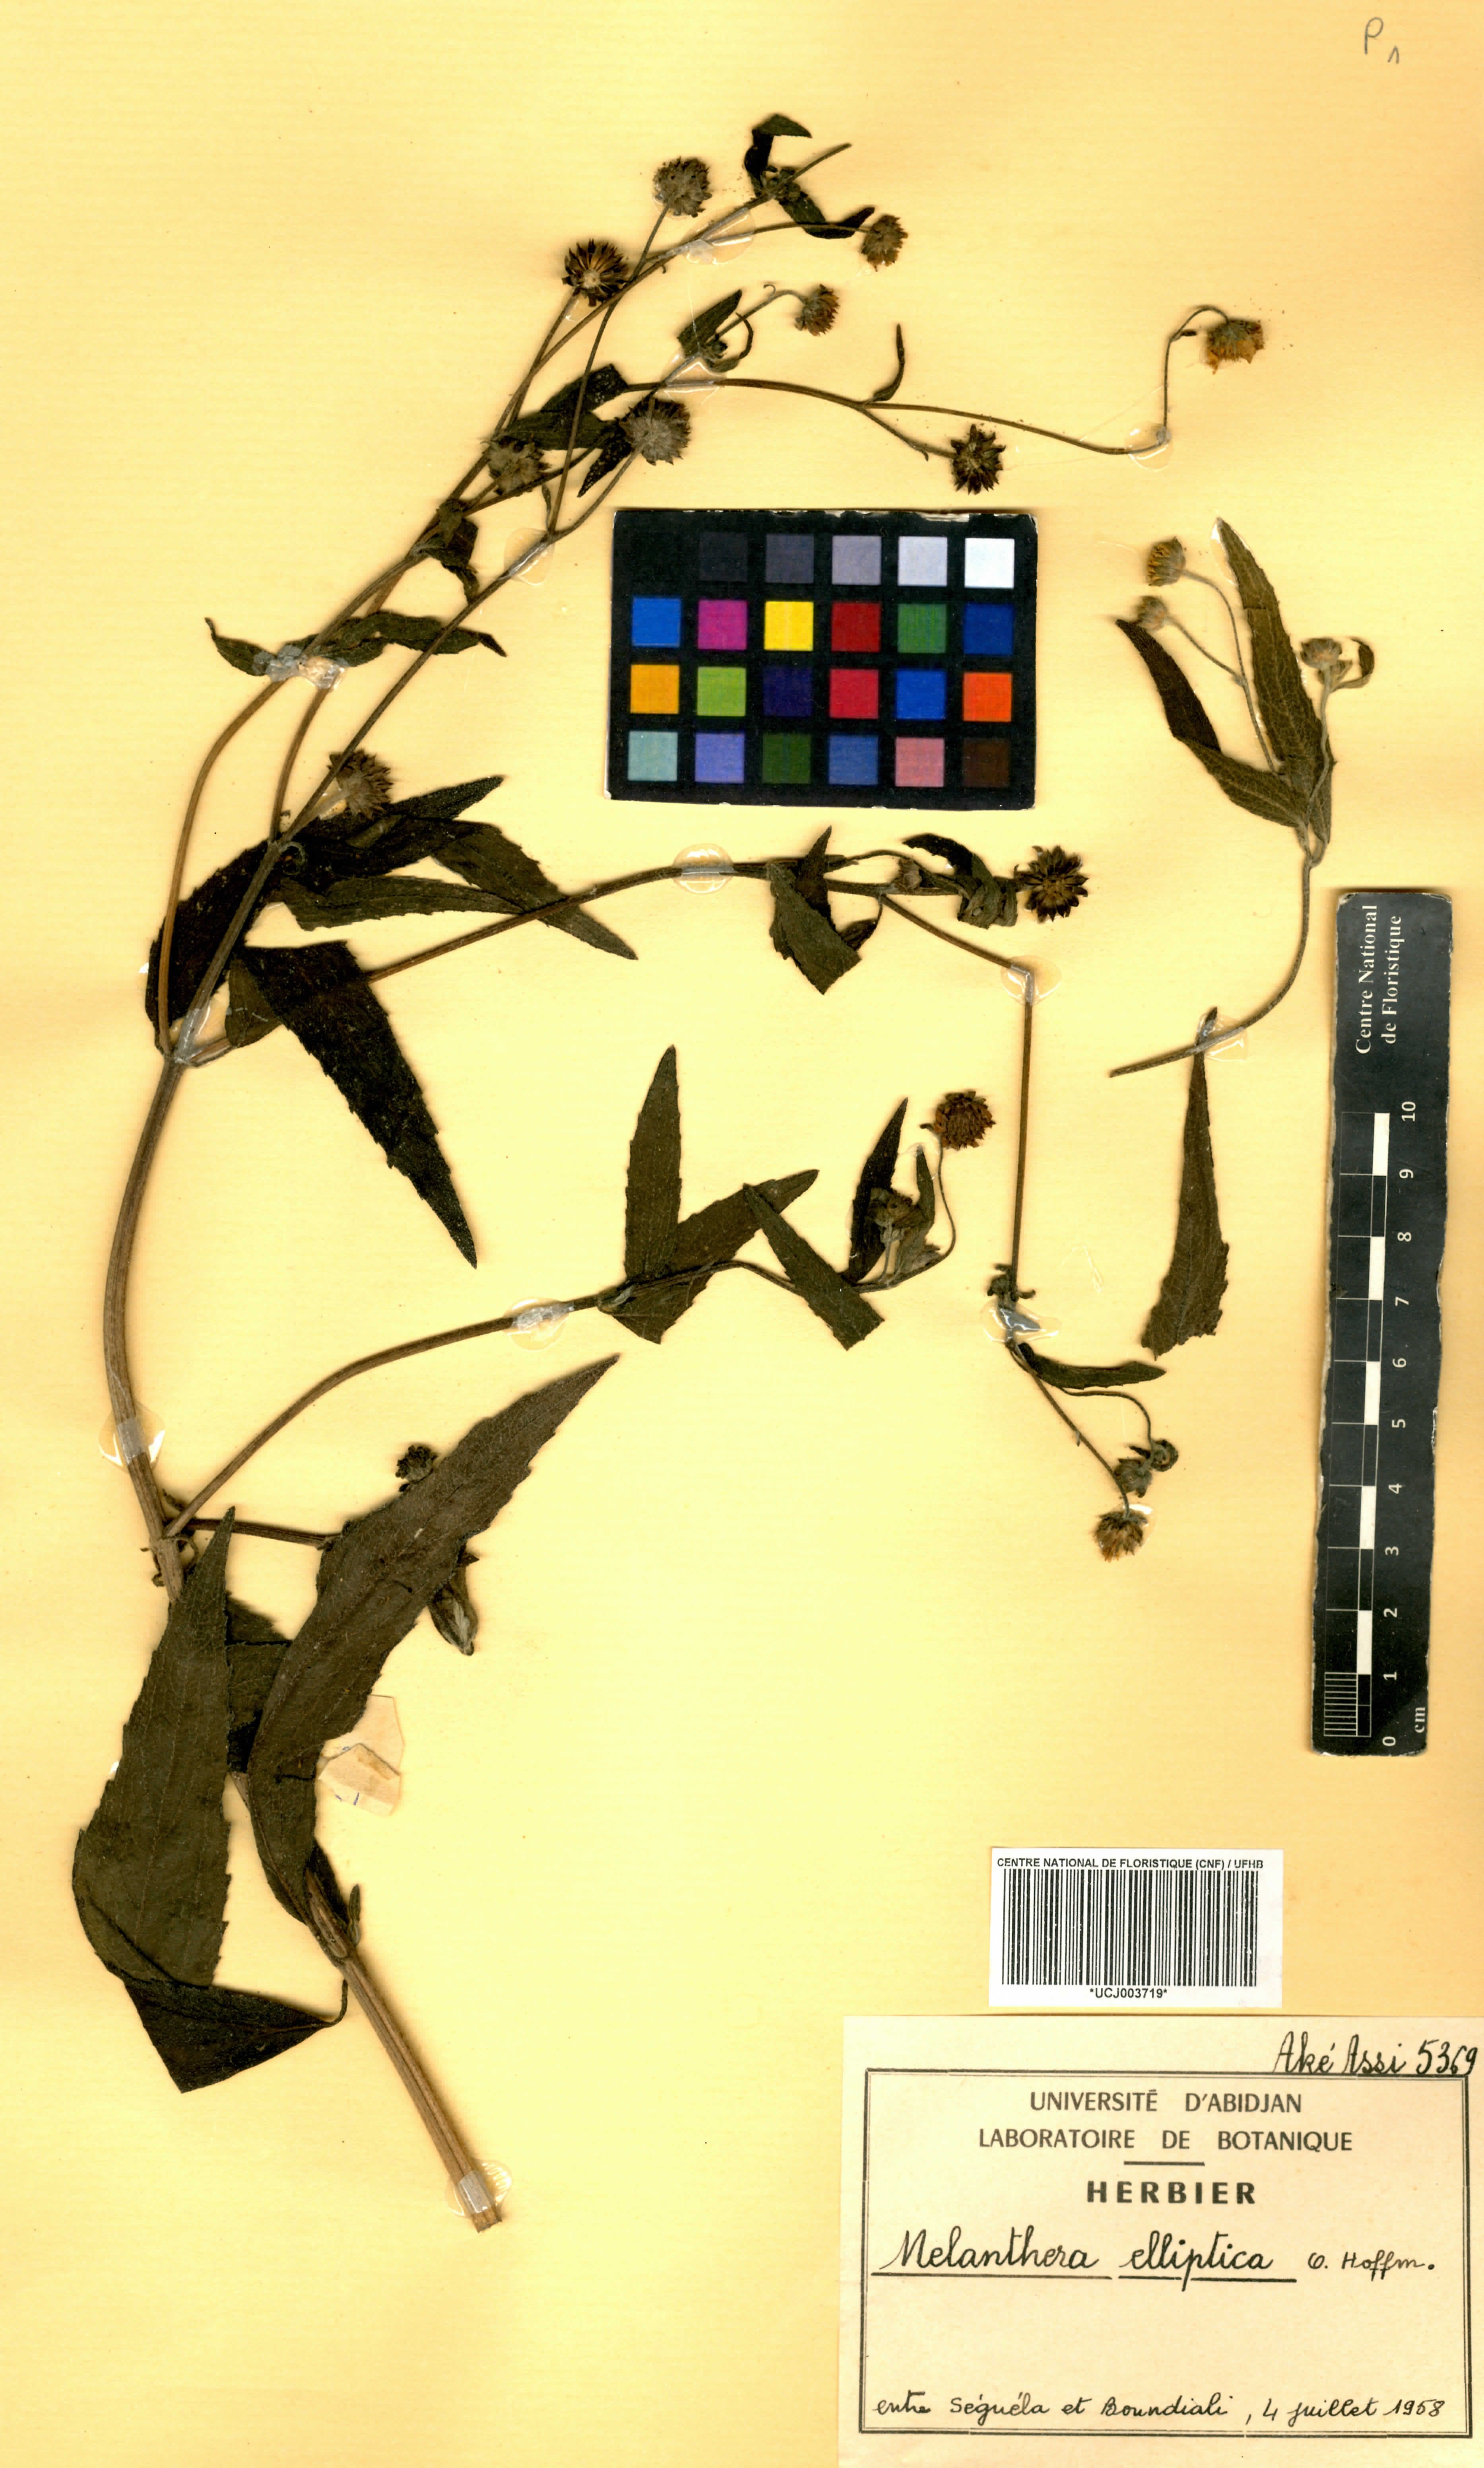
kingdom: Plantae
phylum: Tracheophyta
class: Magnoliopsida
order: Asterales
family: Asteraceae
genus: Lipotriche
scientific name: Lipotriche elliptica
